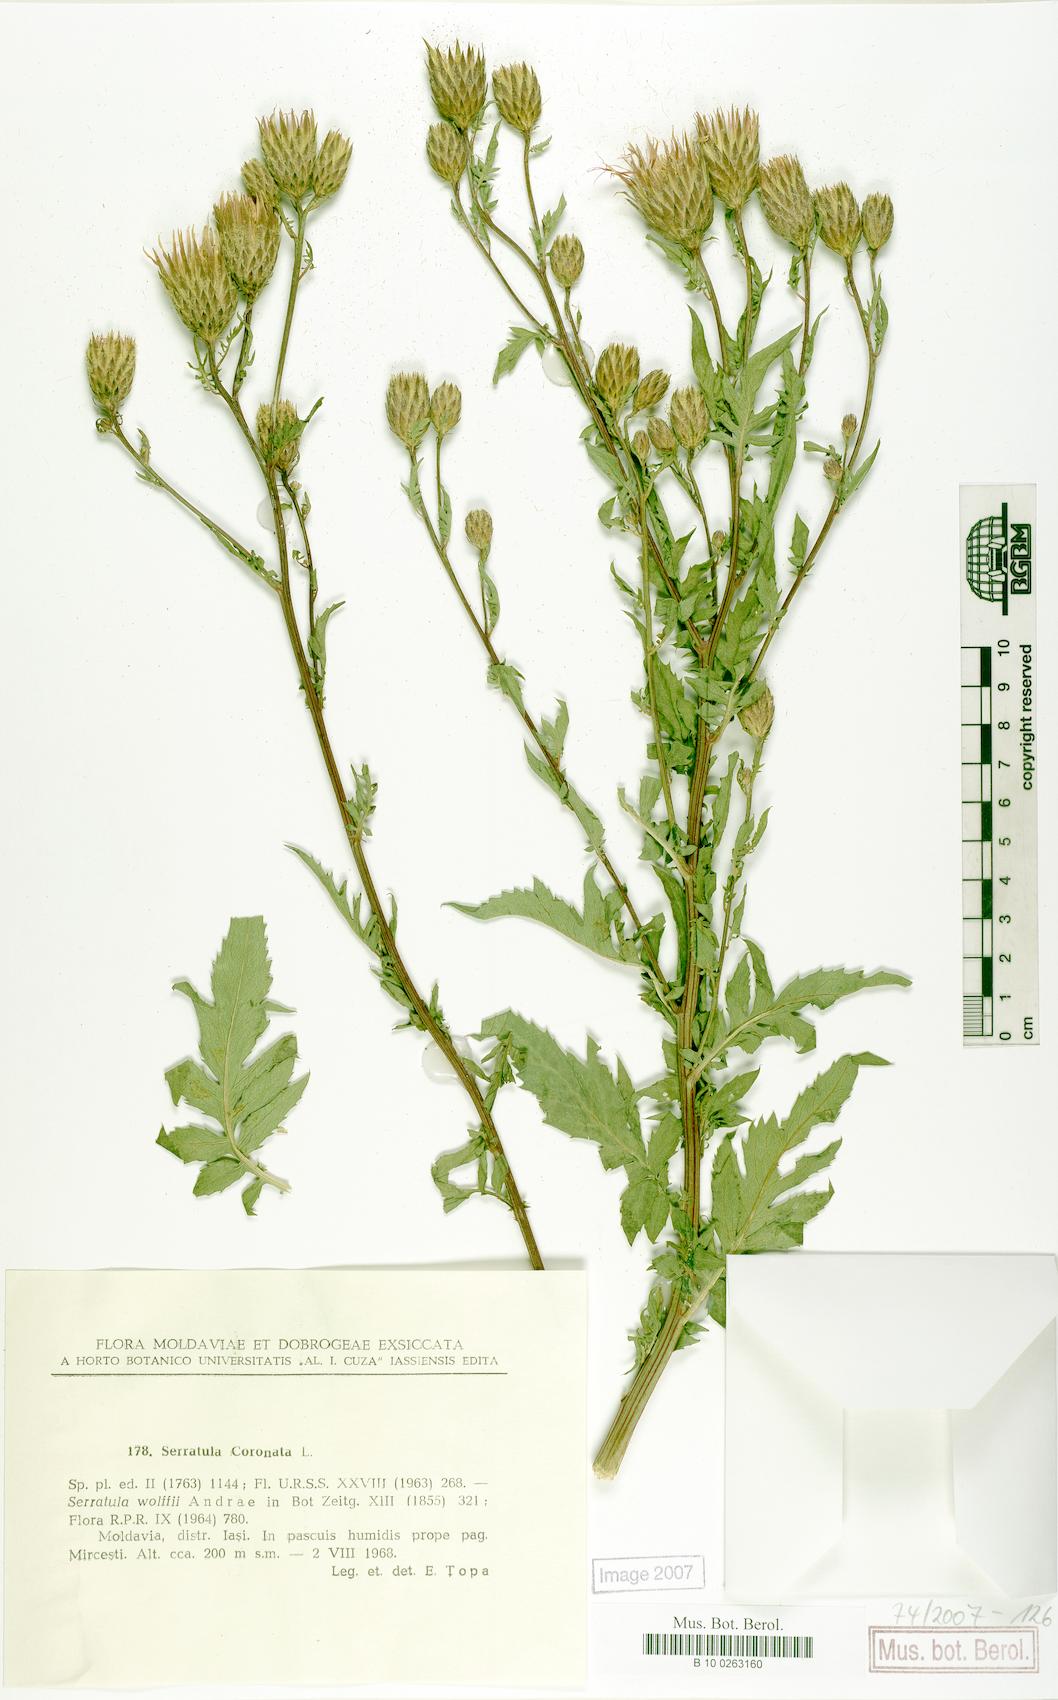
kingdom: Plantae
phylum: Tracheophyta
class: Magnoliopsida
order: Asterales
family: Asteraceae
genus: Serratula
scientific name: Serratula coronata
